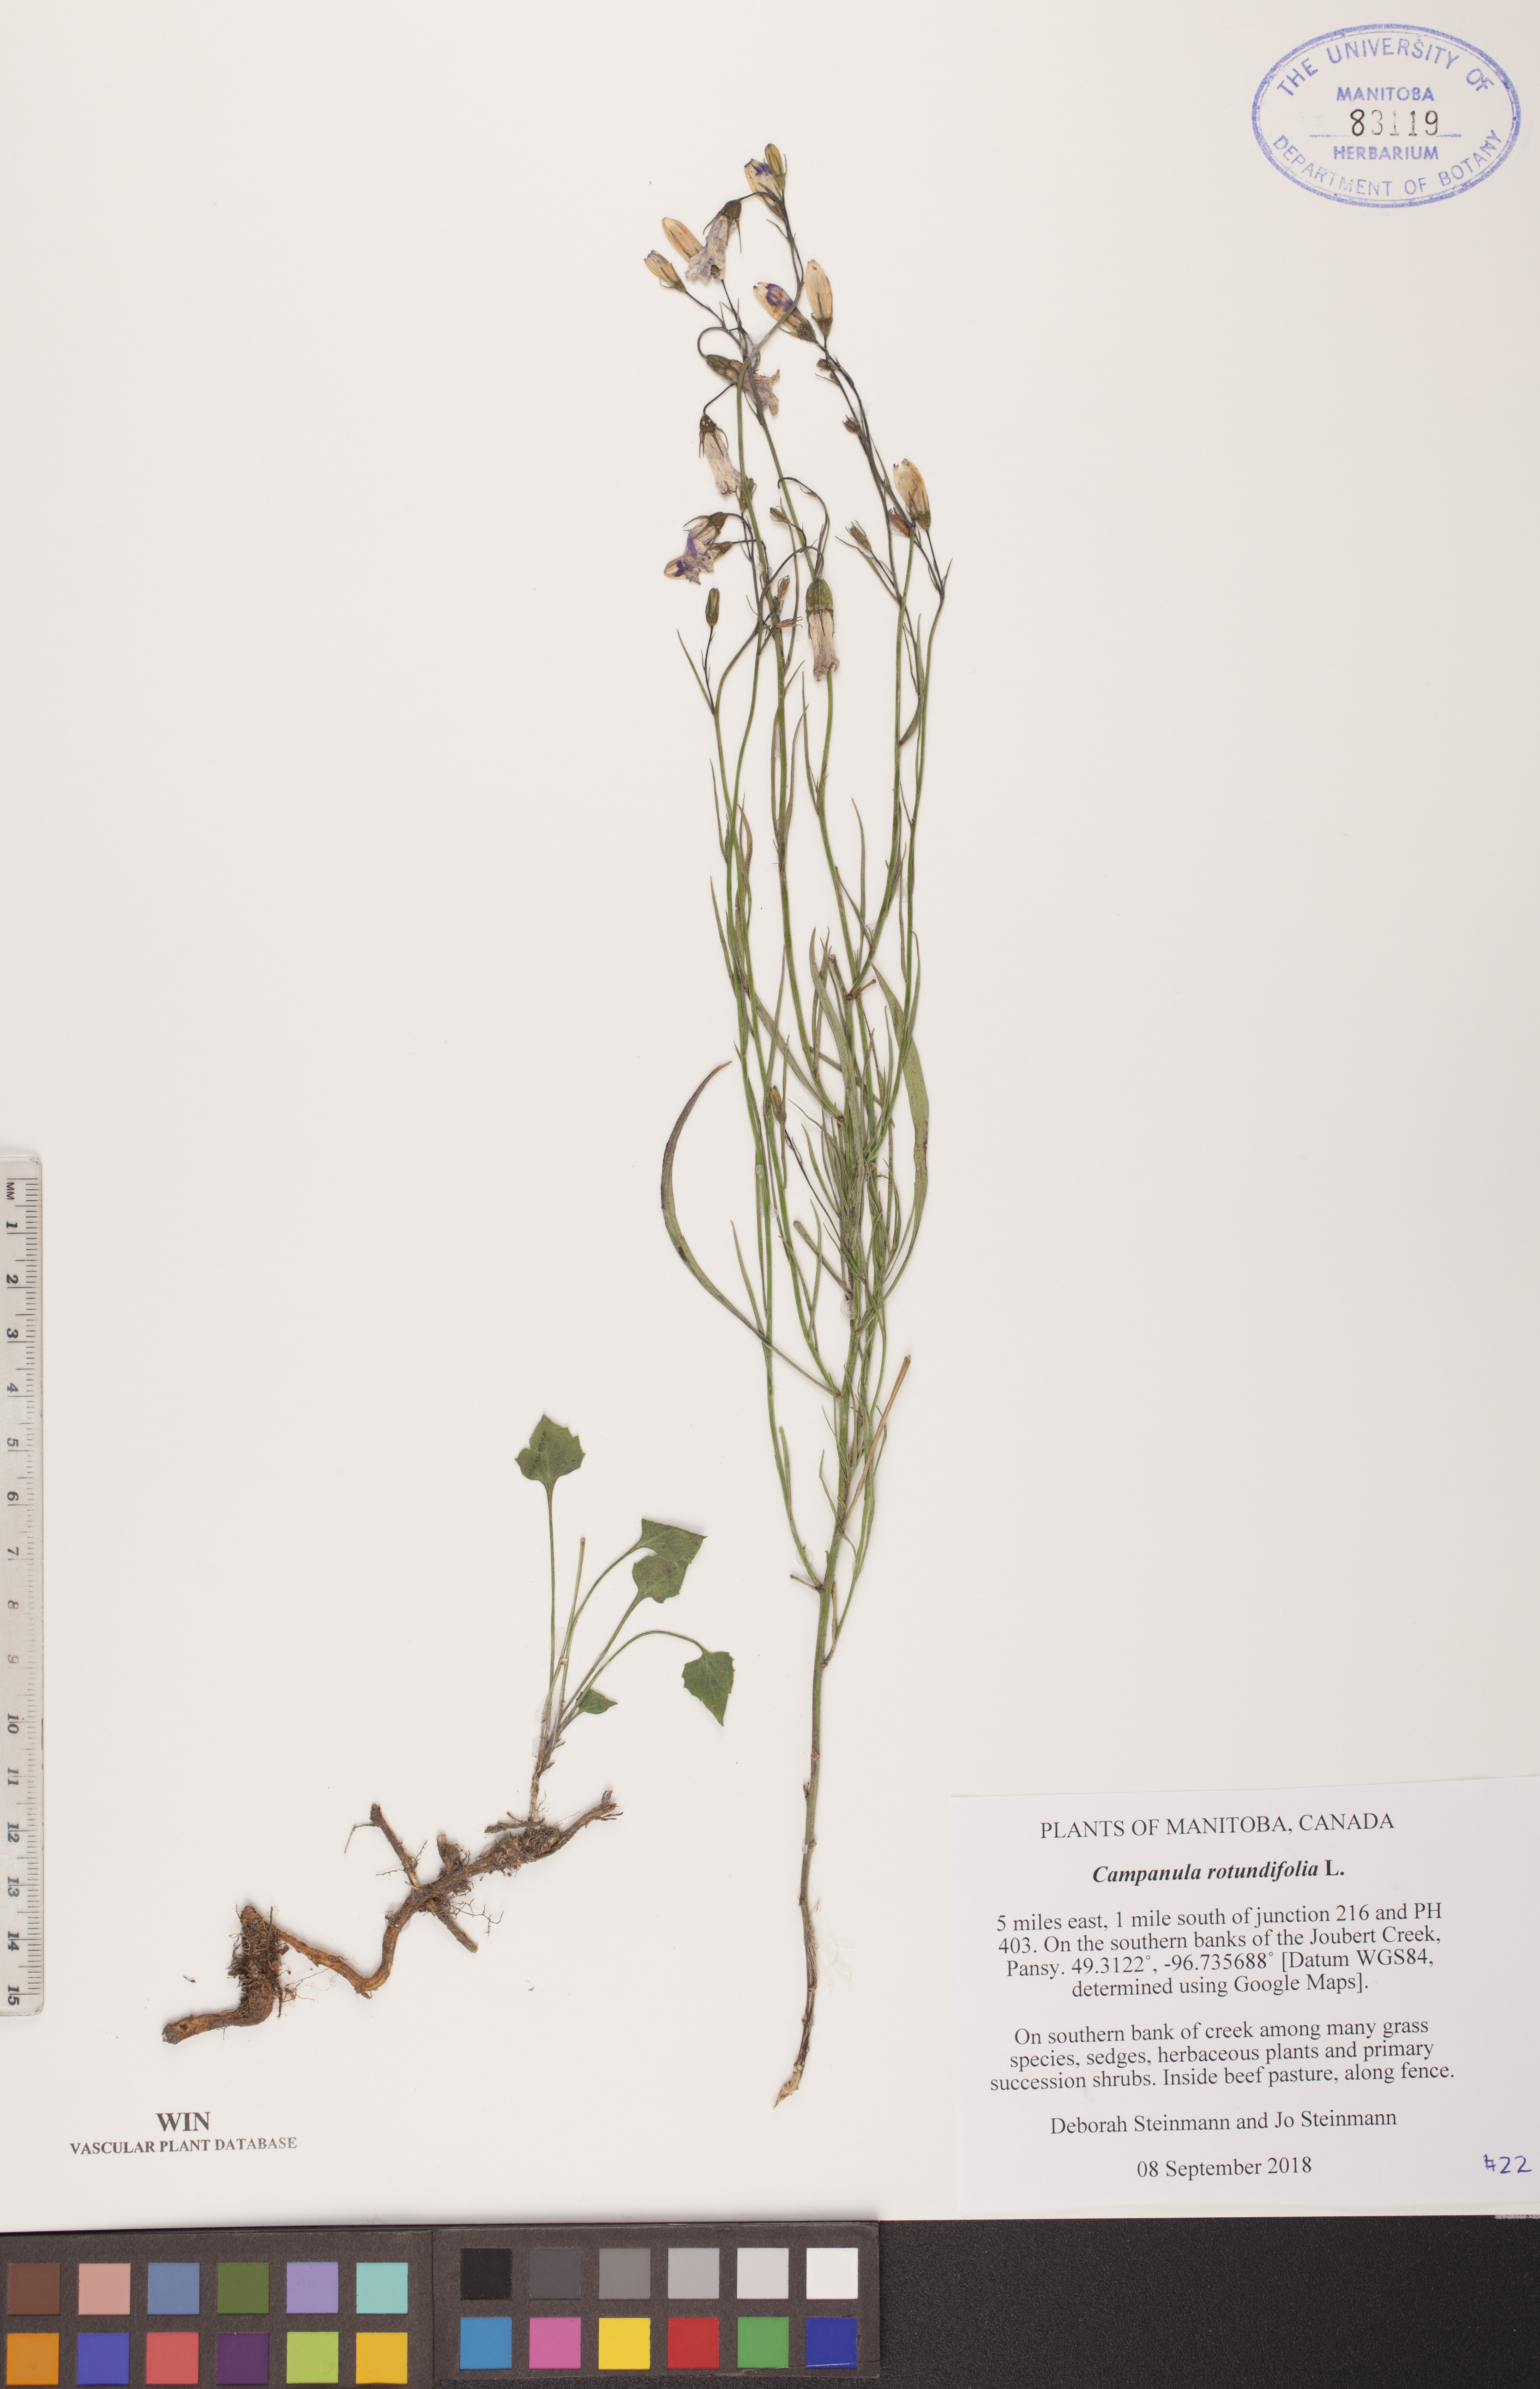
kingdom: Plantae
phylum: Tracheophyta
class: Magnoliopsida
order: Asterales
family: Campanulaceae
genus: Campanula
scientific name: Campanula rotundifolia
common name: Harebell
